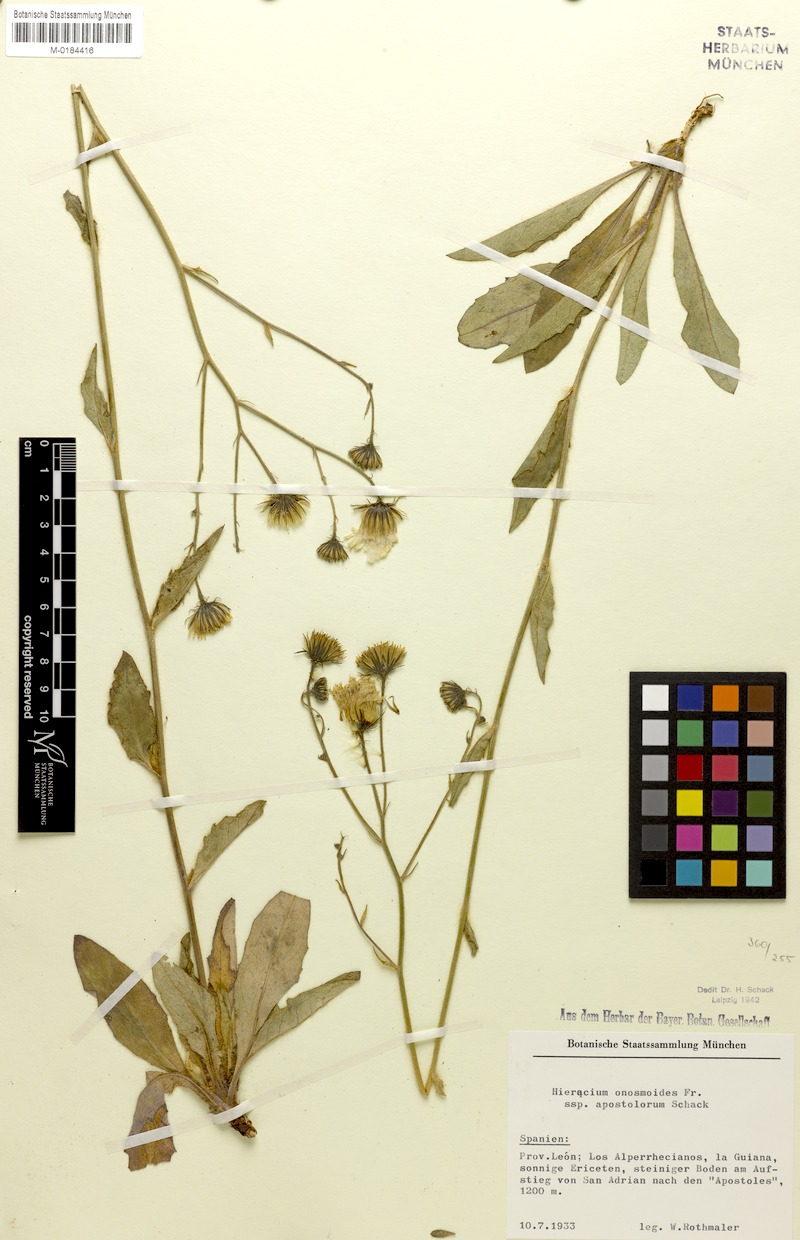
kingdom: Plantae
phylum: Tracheophyta
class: Magnoliopsida
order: Asterales
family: Asteraceae
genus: Hieracium
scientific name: Hieracium onosmoides
